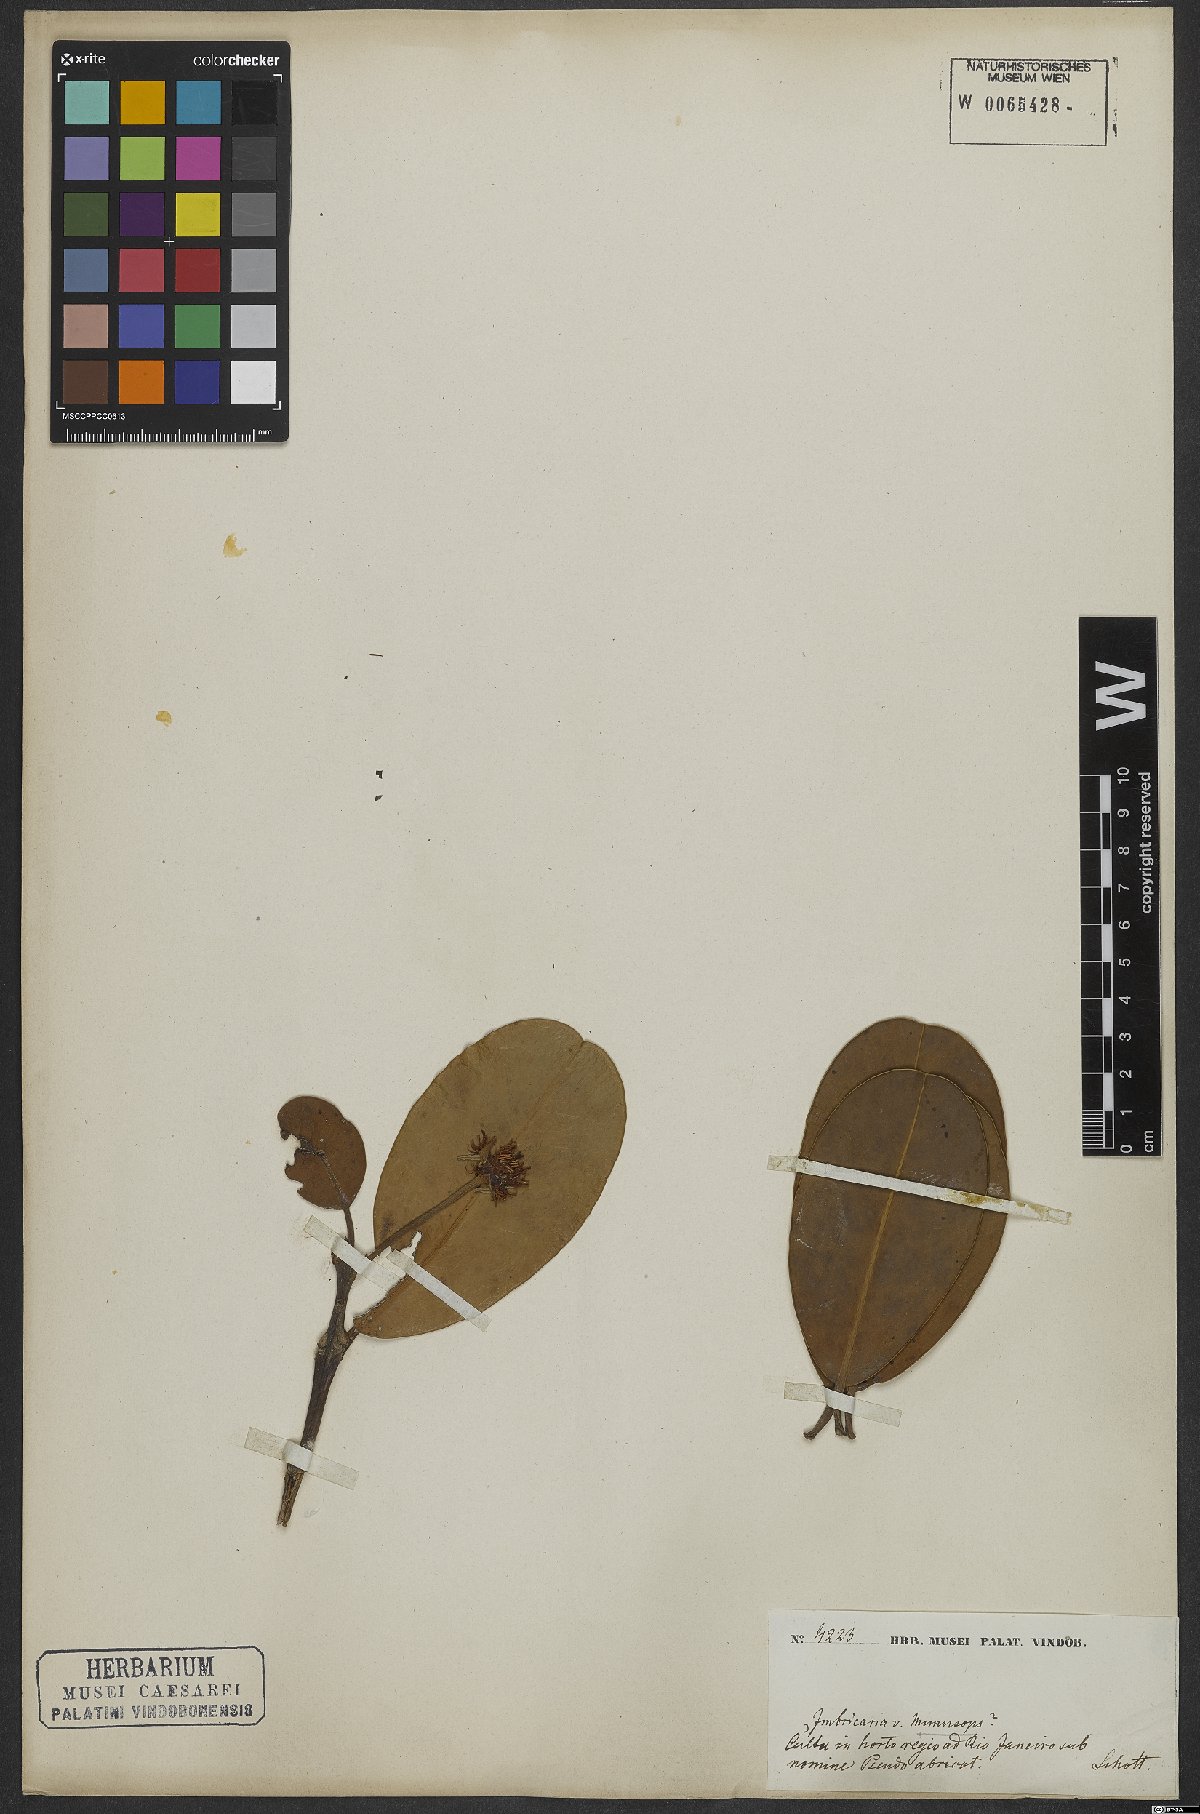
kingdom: Plantae
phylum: Tracheophyta
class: Magnoliopsida
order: Ericales
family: Sapotaceae
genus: Mimusops
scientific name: Mimusops petiolaris
